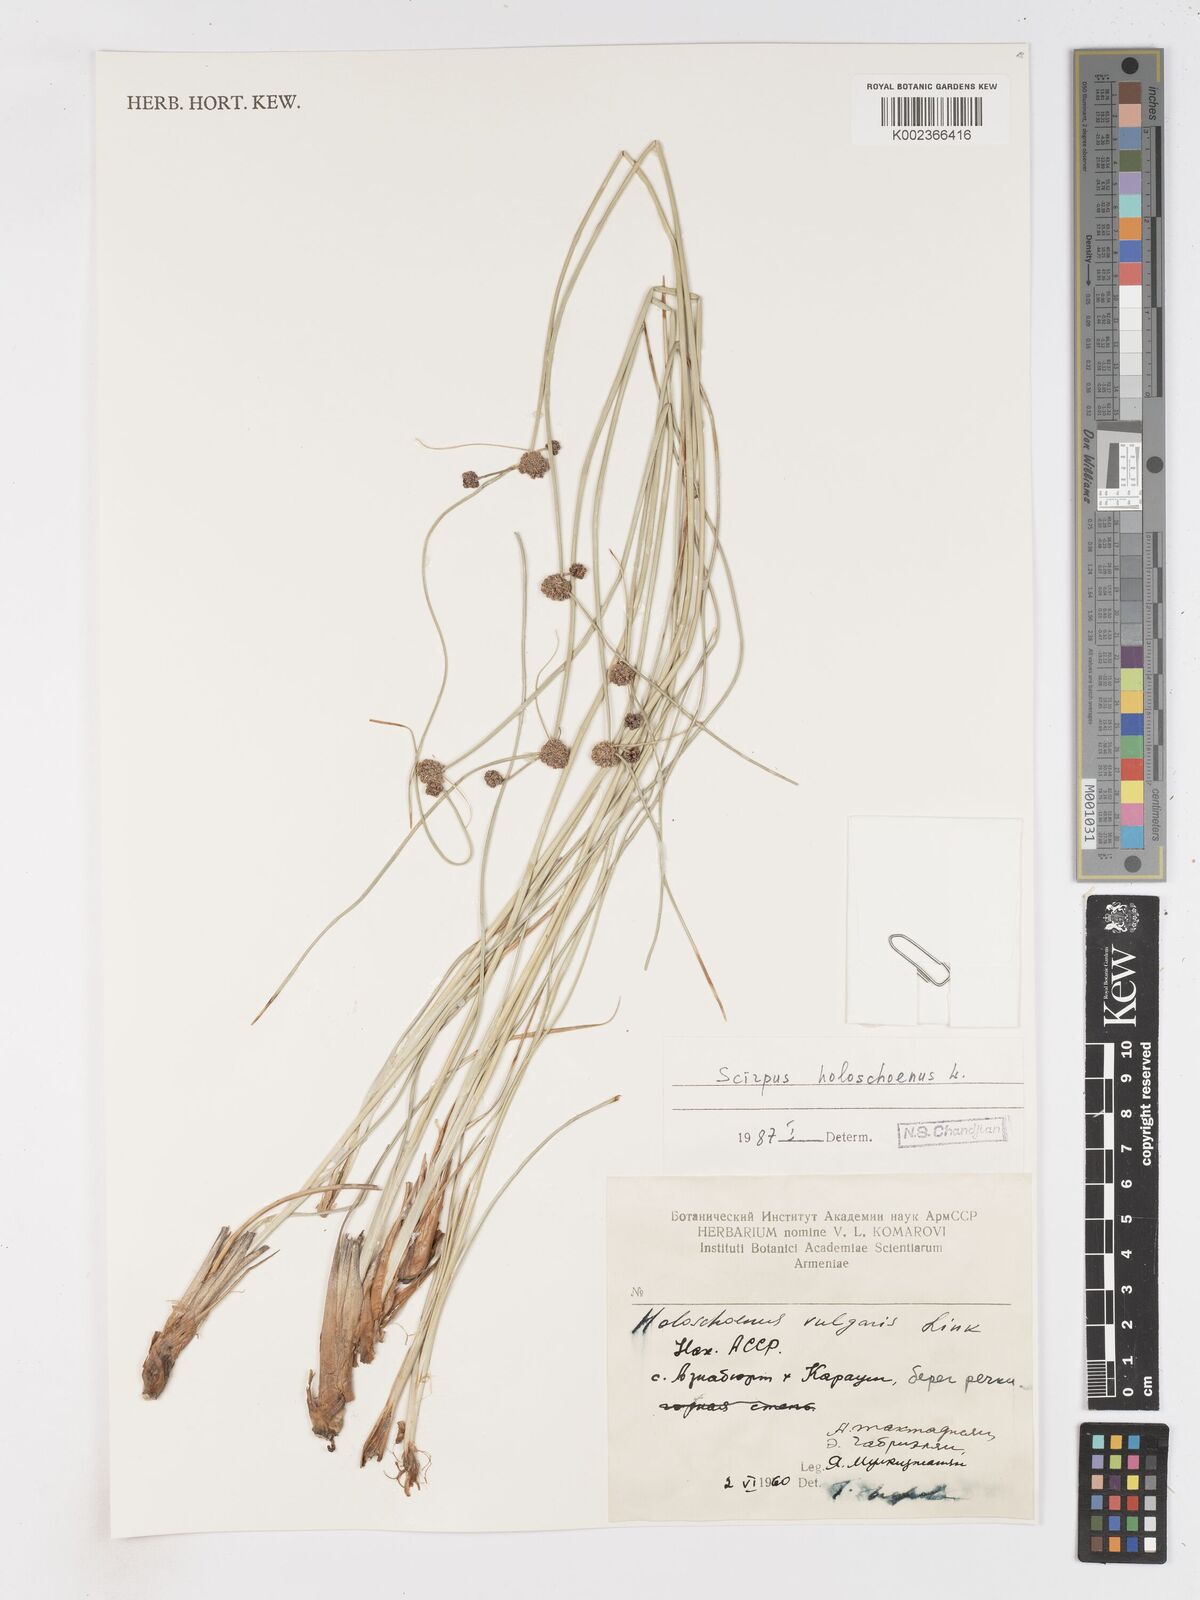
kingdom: Plantae
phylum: Tracheophyta
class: Liliopsida
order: Poales
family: Cyperaceae
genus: Scirpoides
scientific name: Scirpoides holoschoenus
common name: Round-headed club-rush
